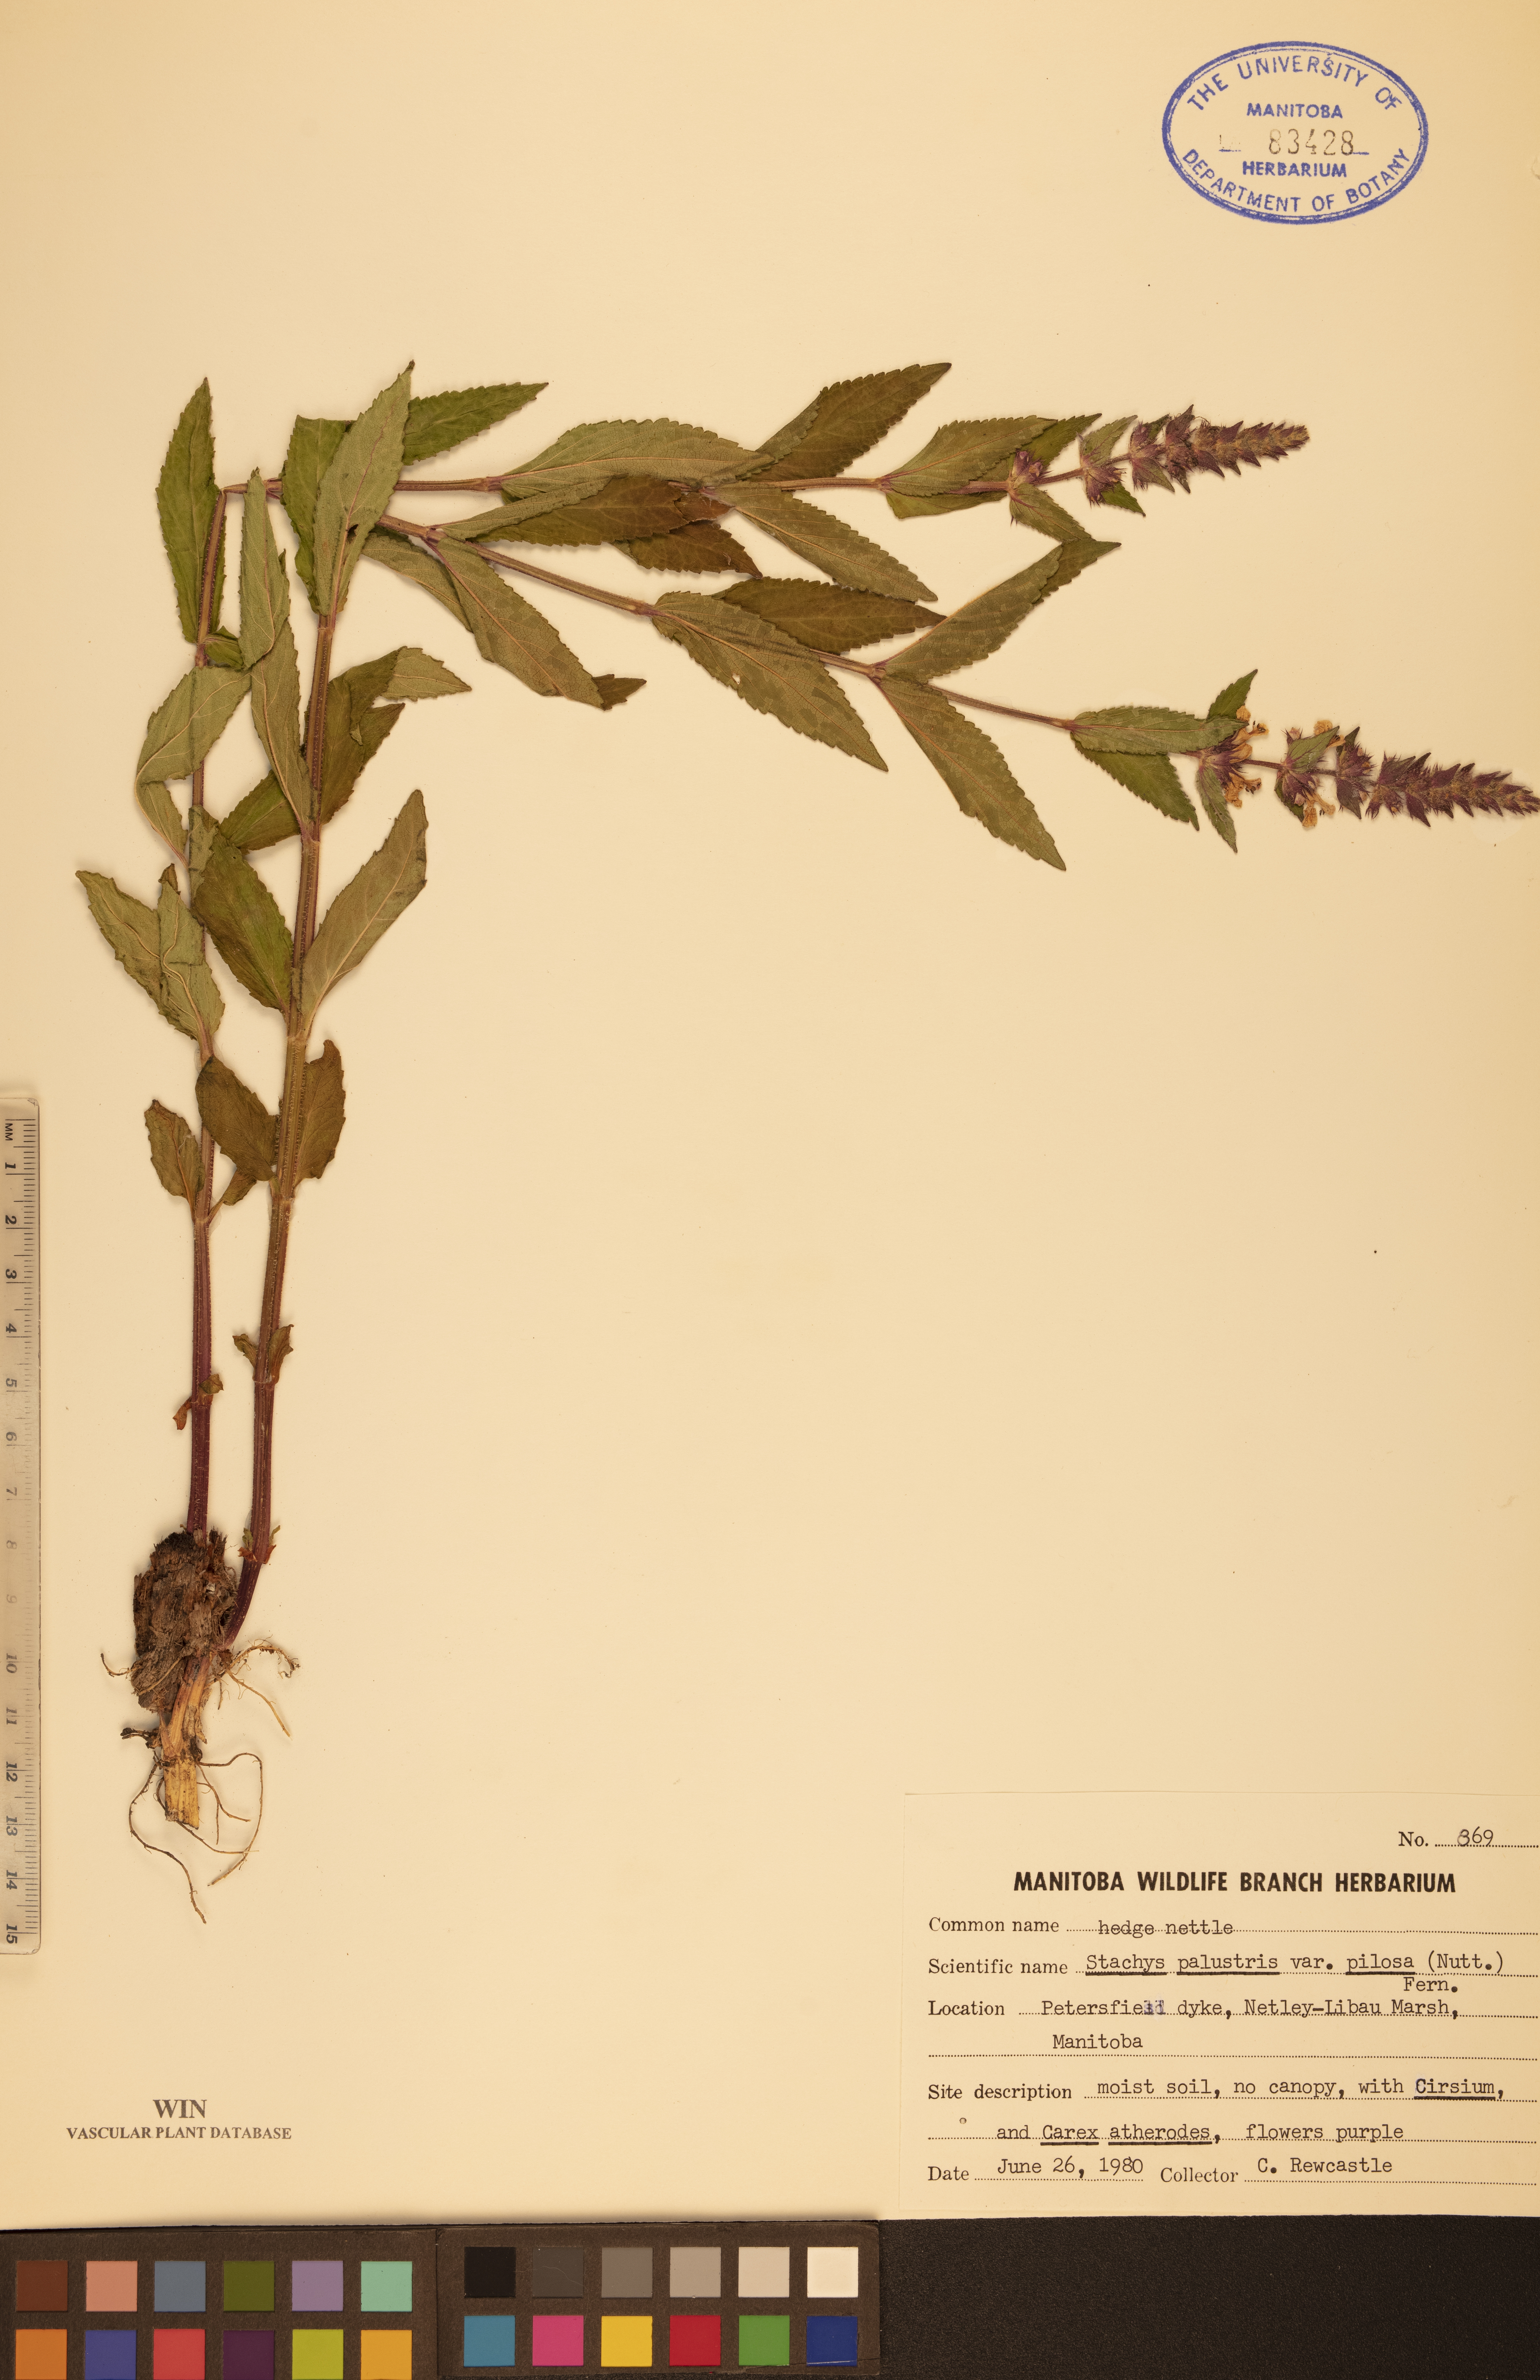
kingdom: Plantae
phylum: Tracheophyta
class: Magnoliopsida
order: Lamiales
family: Lamiaceae
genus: Stachys
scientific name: Stachys pilosa
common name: Hairy hedge-nettle
